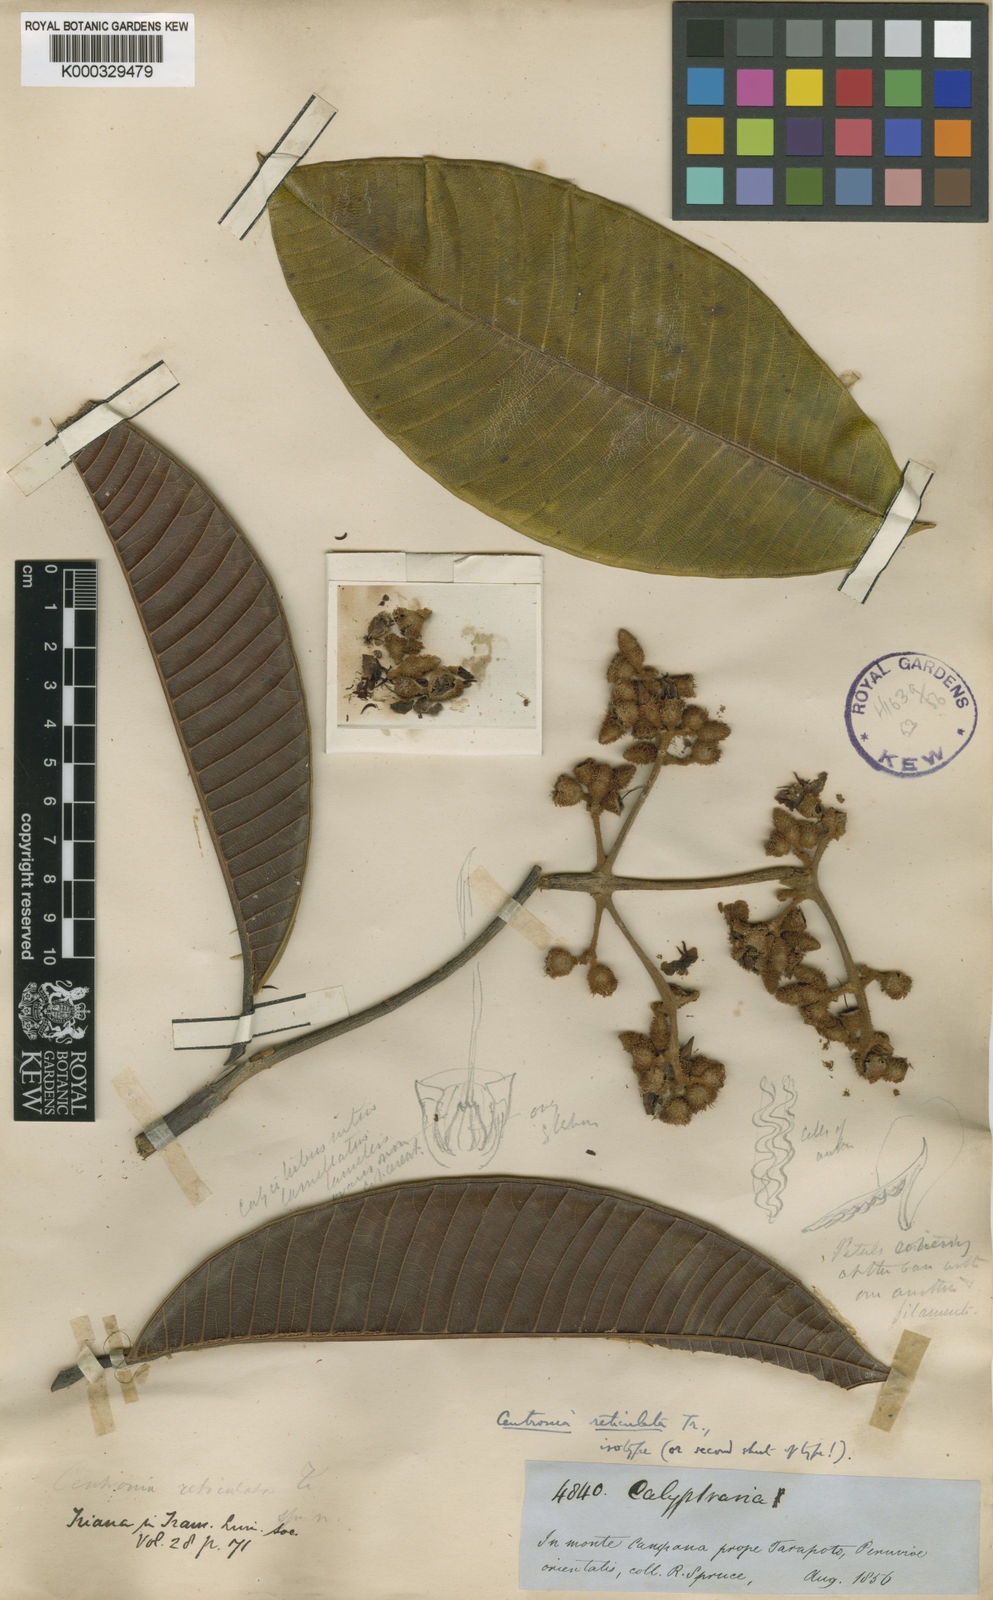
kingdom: Plantae
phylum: Tracheophyta
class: Magnoliopsida
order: Myrtales
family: Melastomataceae
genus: Centronia
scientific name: Centronia reticulata
